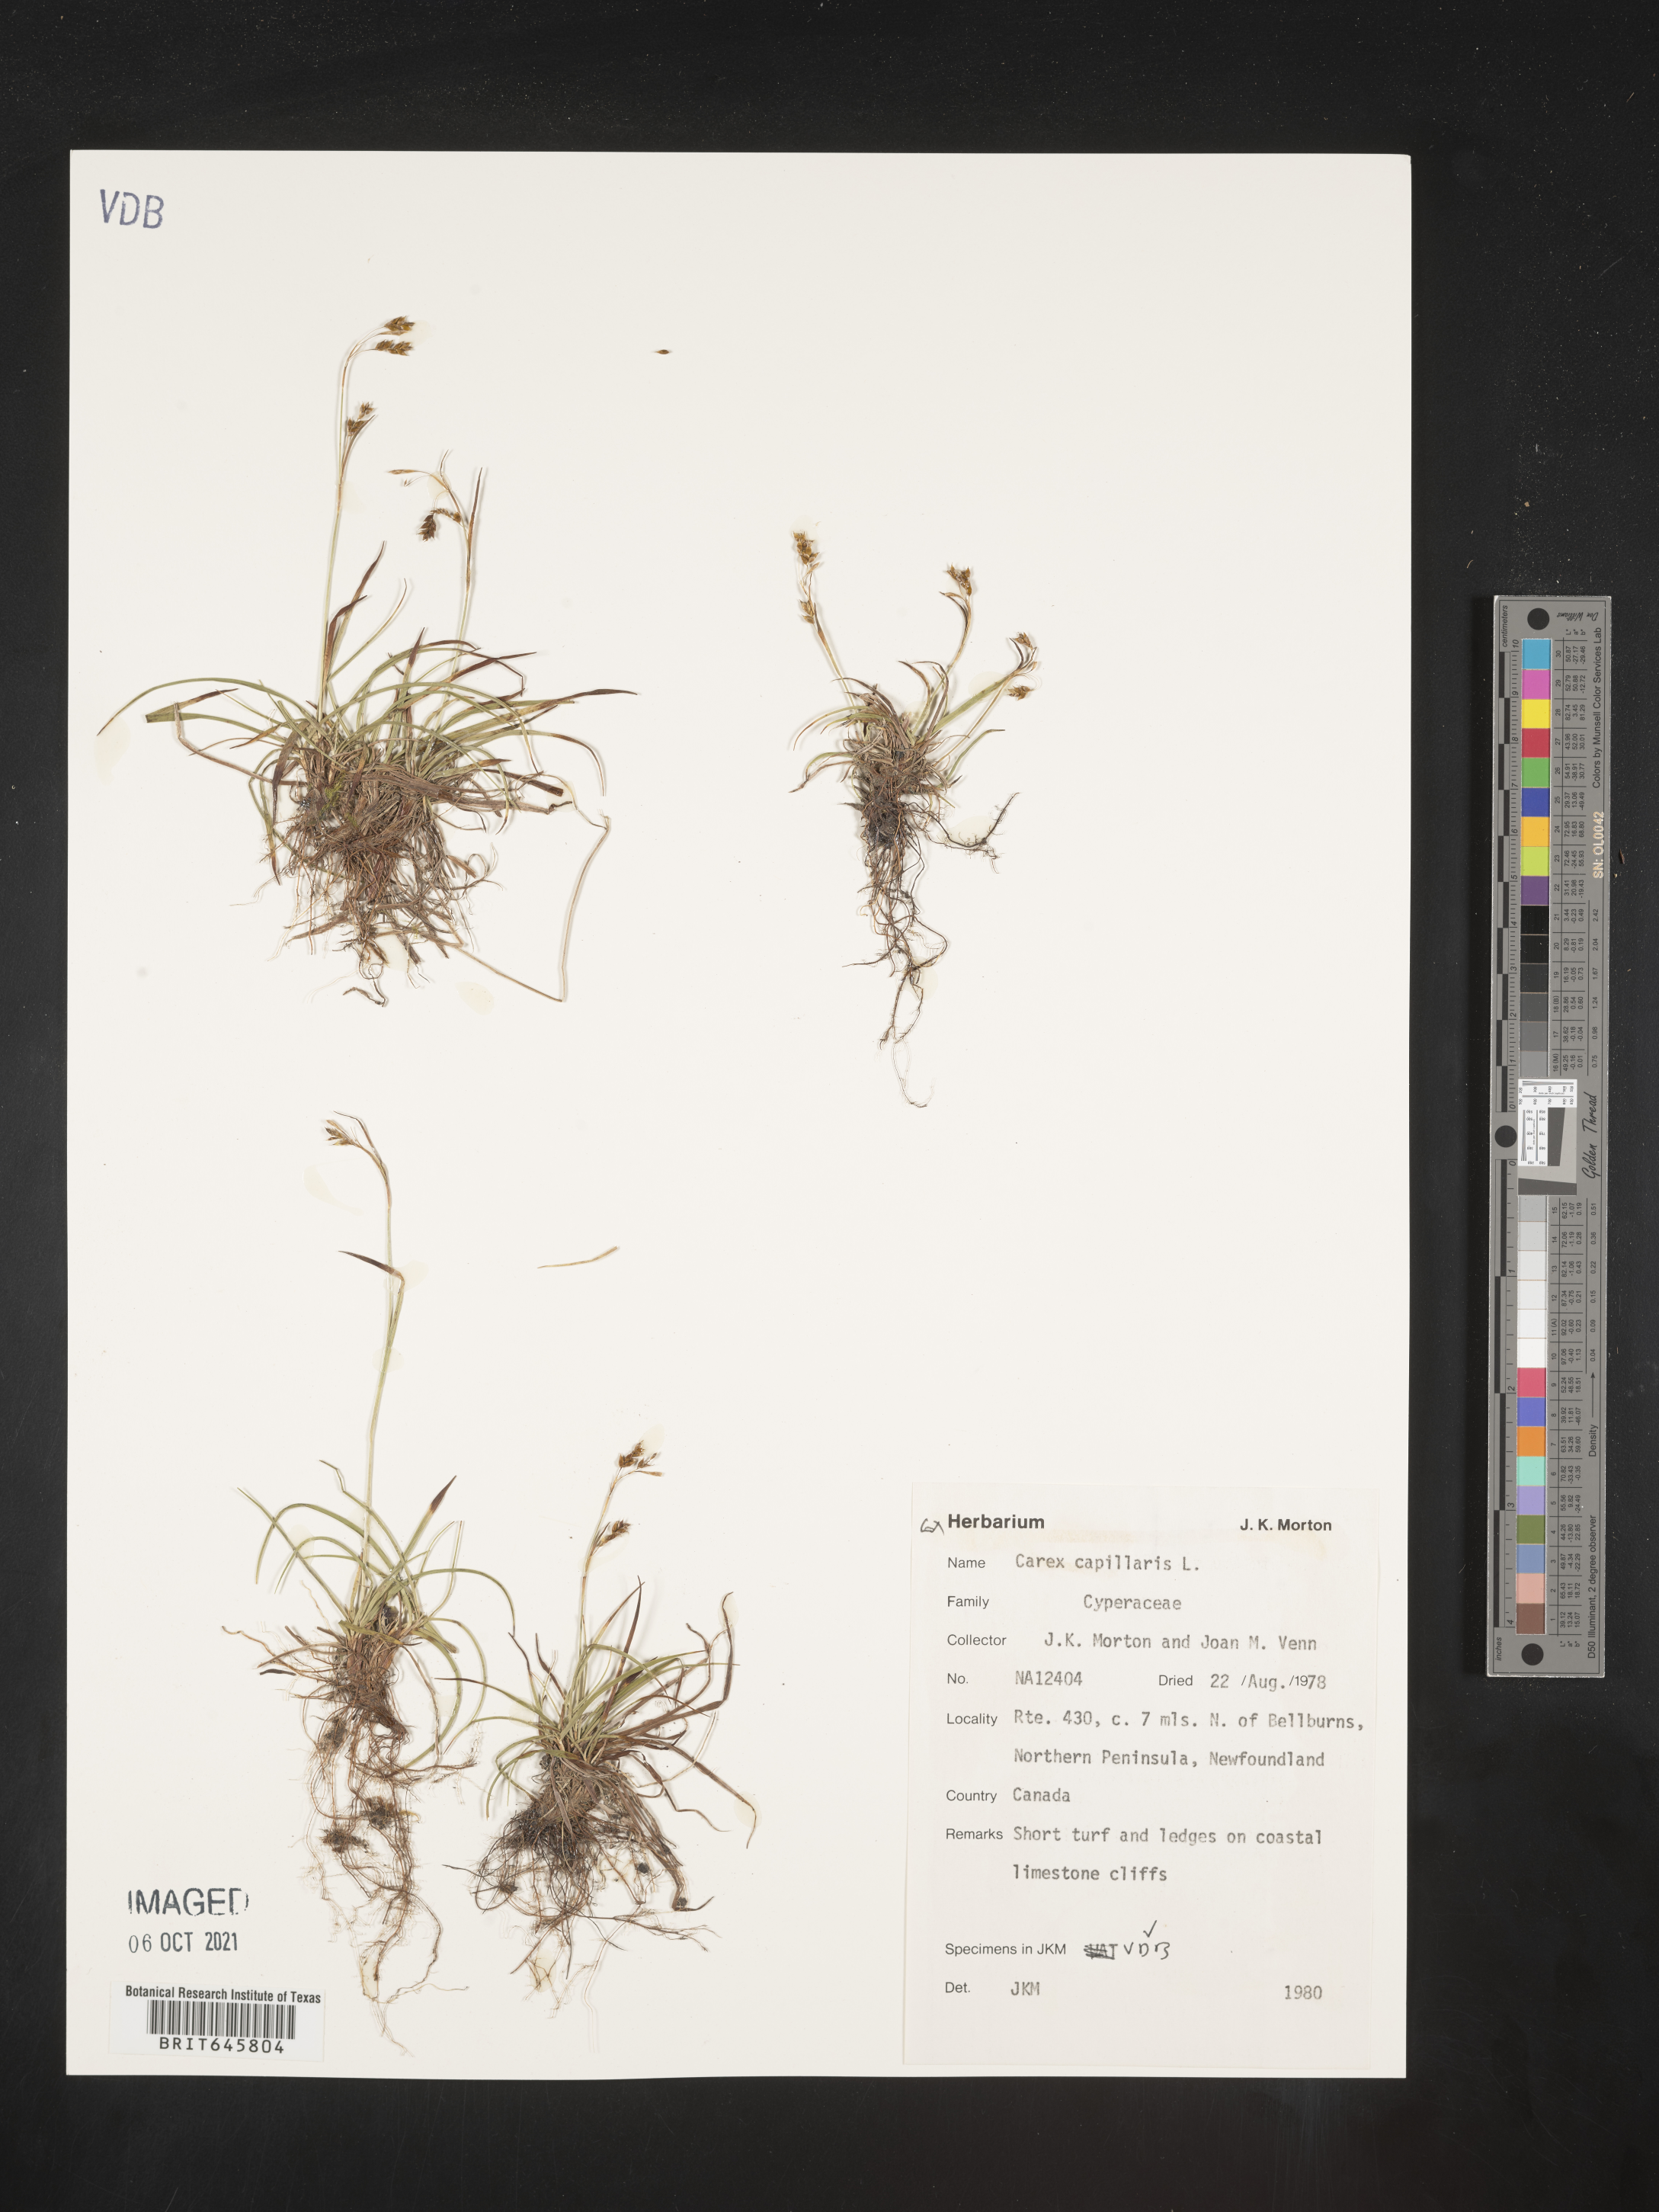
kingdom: Plantae
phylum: Tracheophyta
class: Liliopsida
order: Poales
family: Cyperaceae
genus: Carex
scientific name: Carex capillaris
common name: Hair sedge
